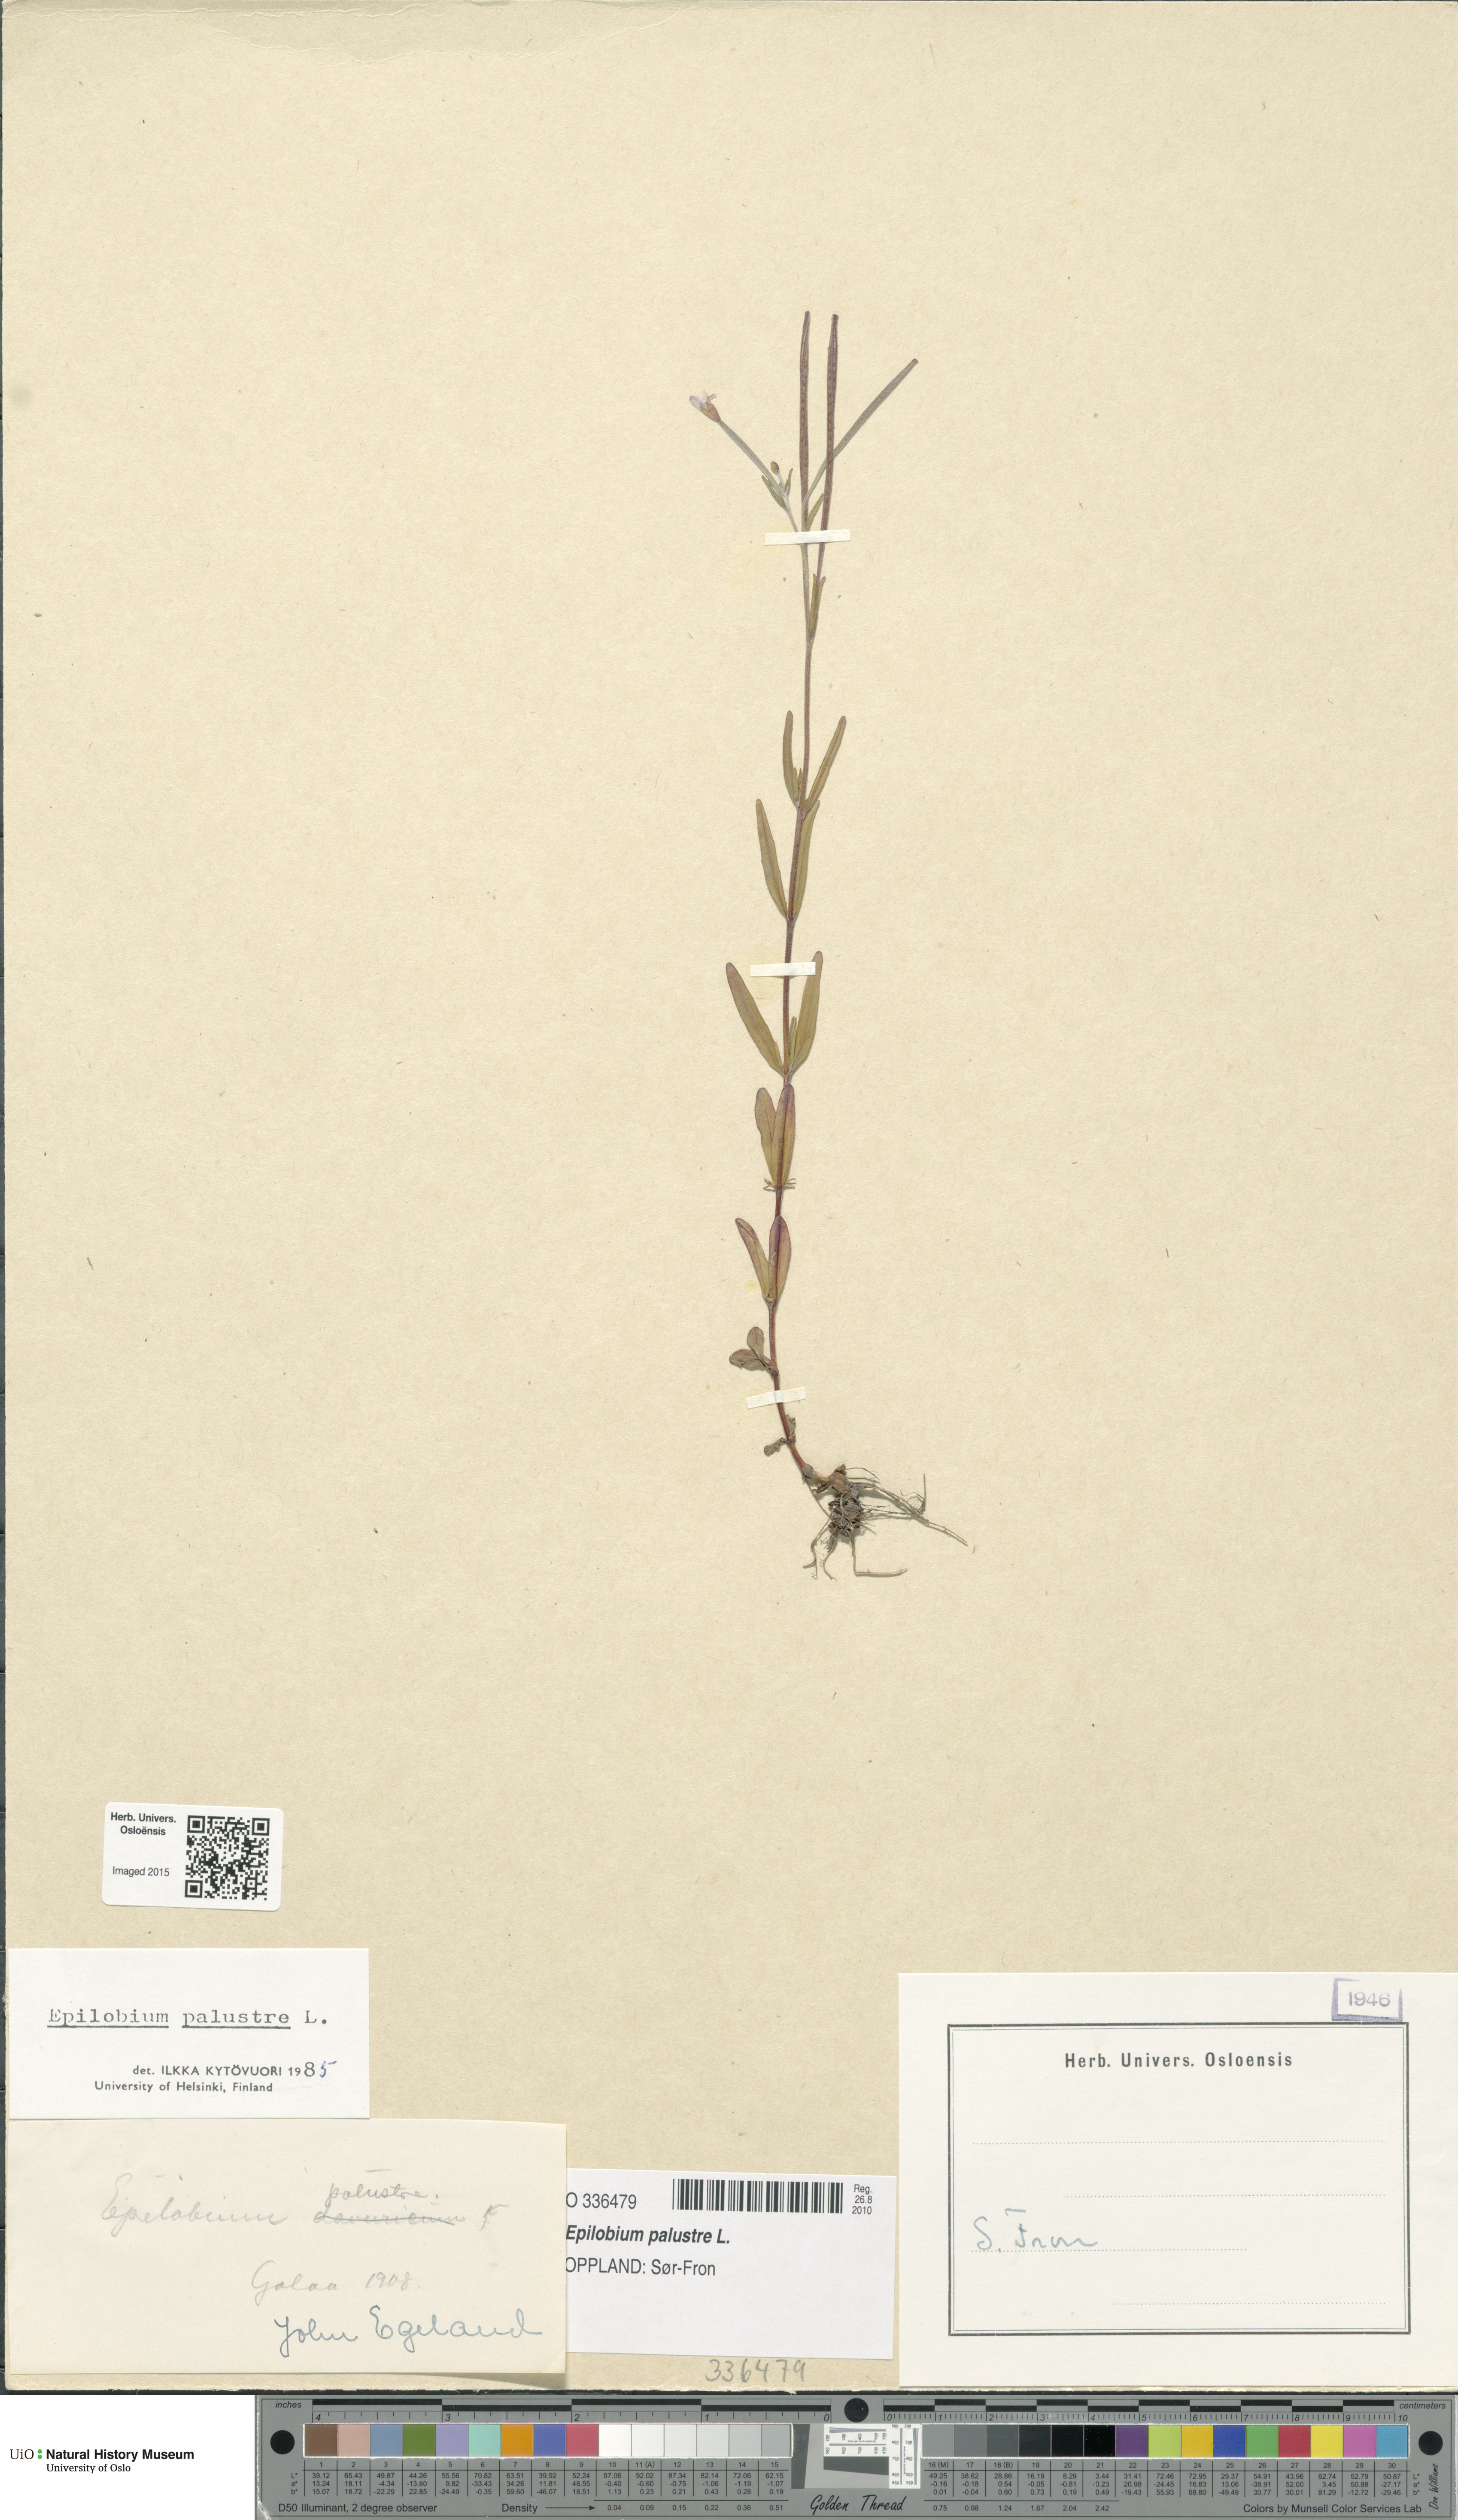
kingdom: Plantae
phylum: Tracheophyta
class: Magnoliopsida
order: Myrtales
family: Onagraceae
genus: Epilobium
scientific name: Epilobium palustre
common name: Marsh willowherb
